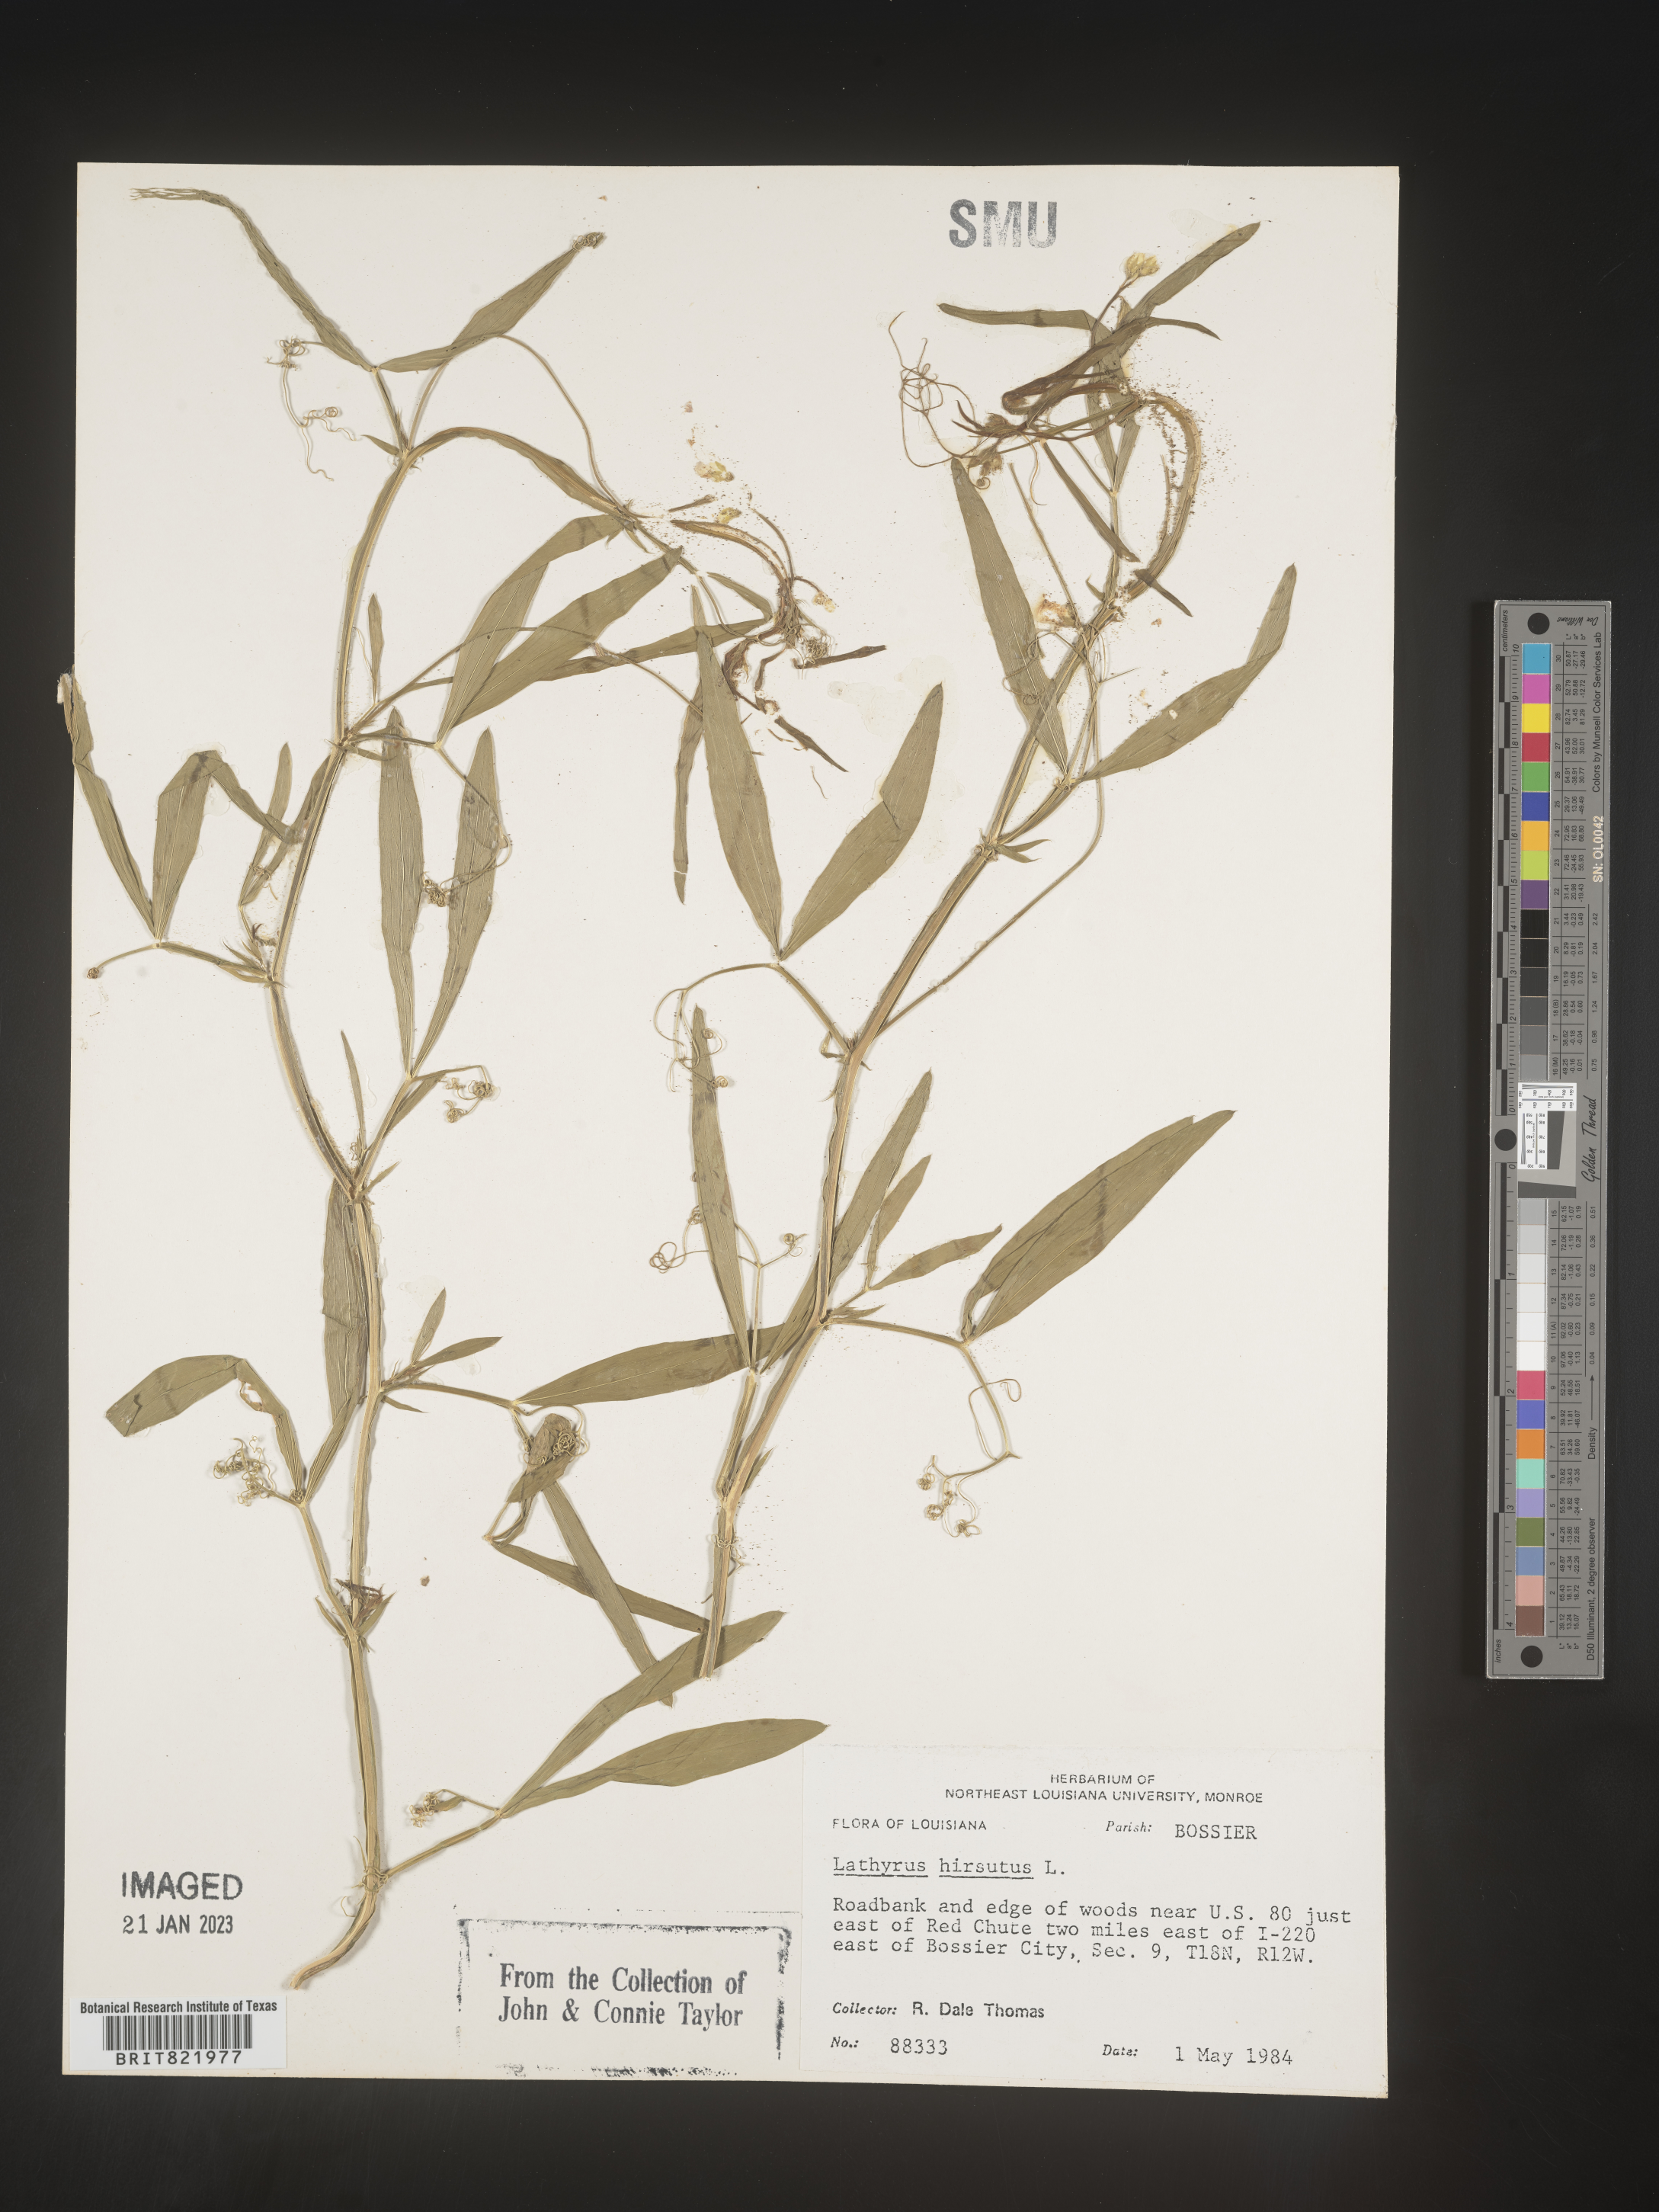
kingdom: Plantae
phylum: Tracheophyta
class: Magnoliopsida
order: Fabales
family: Fabaceae
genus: Lathyrus
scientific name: Lathyrus hirsutus
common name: Hairy vetchling
